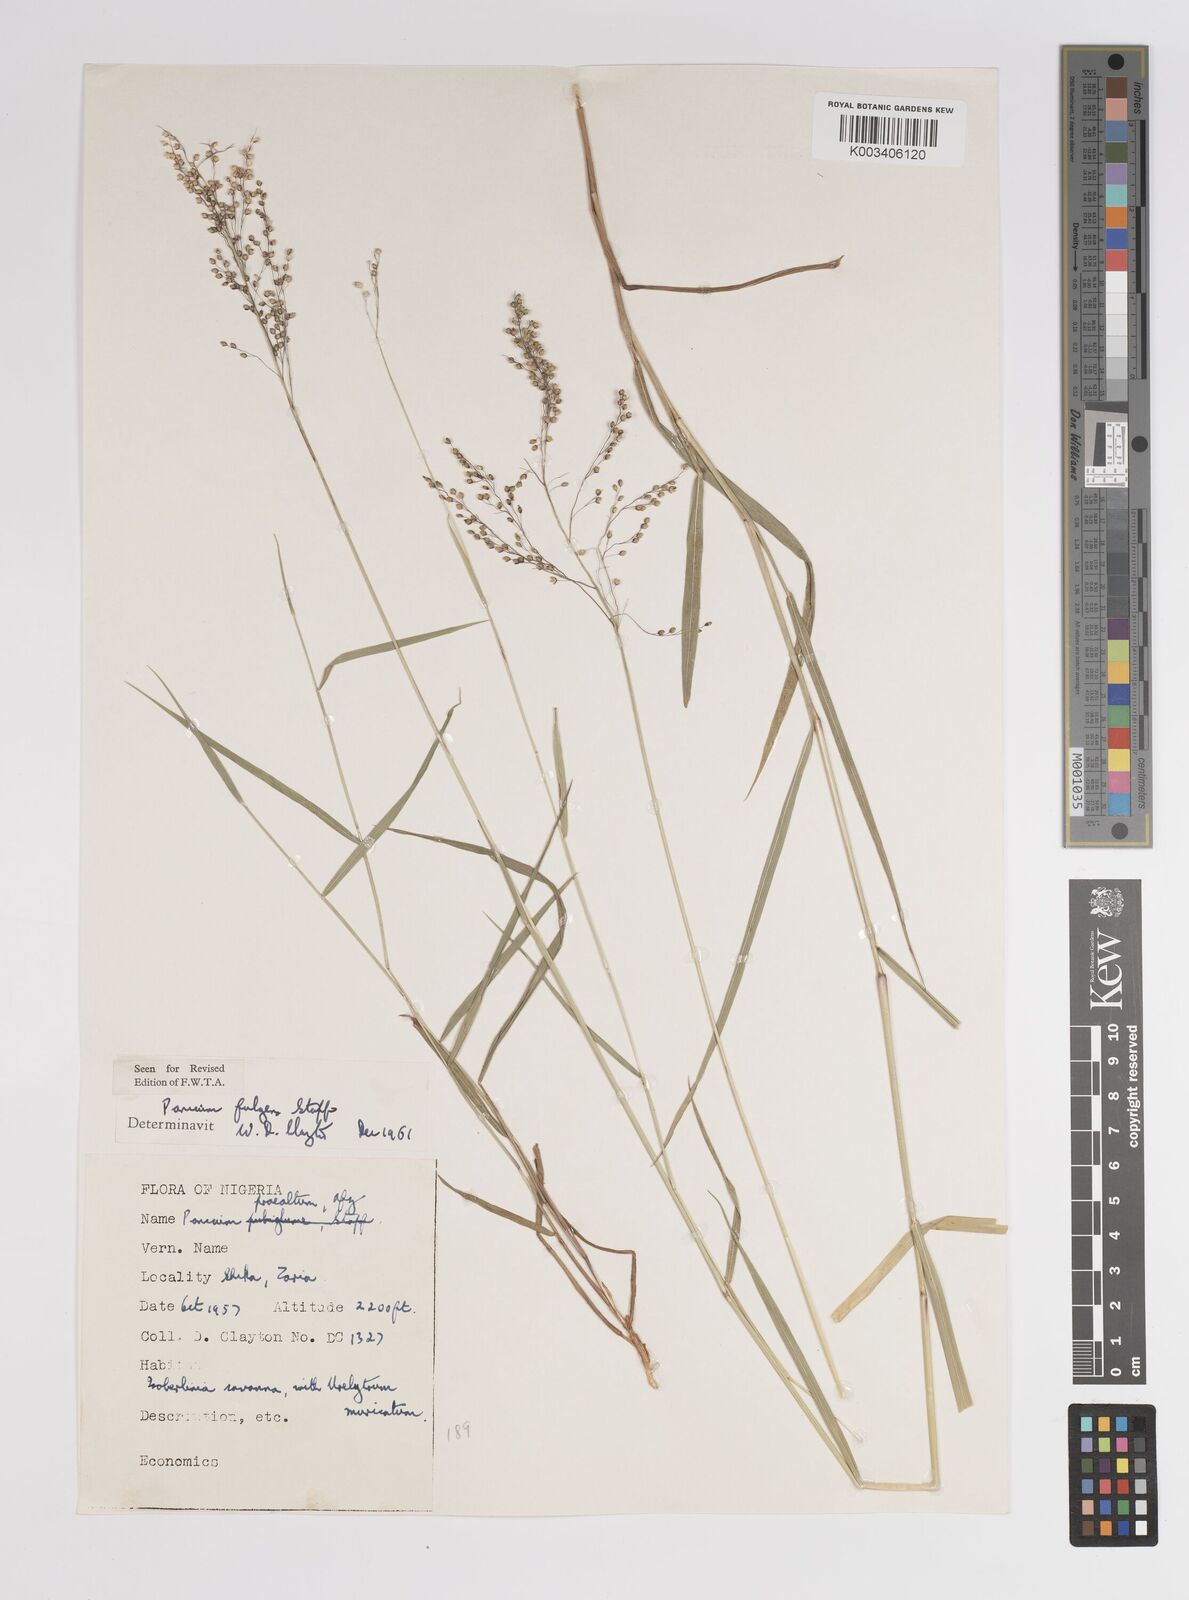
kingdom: Plantae
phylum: Tracheophyta
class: Liliopsida
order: Poales
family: Poaceae
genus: Trichanthecium
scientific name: Trichanthecium nervatum
